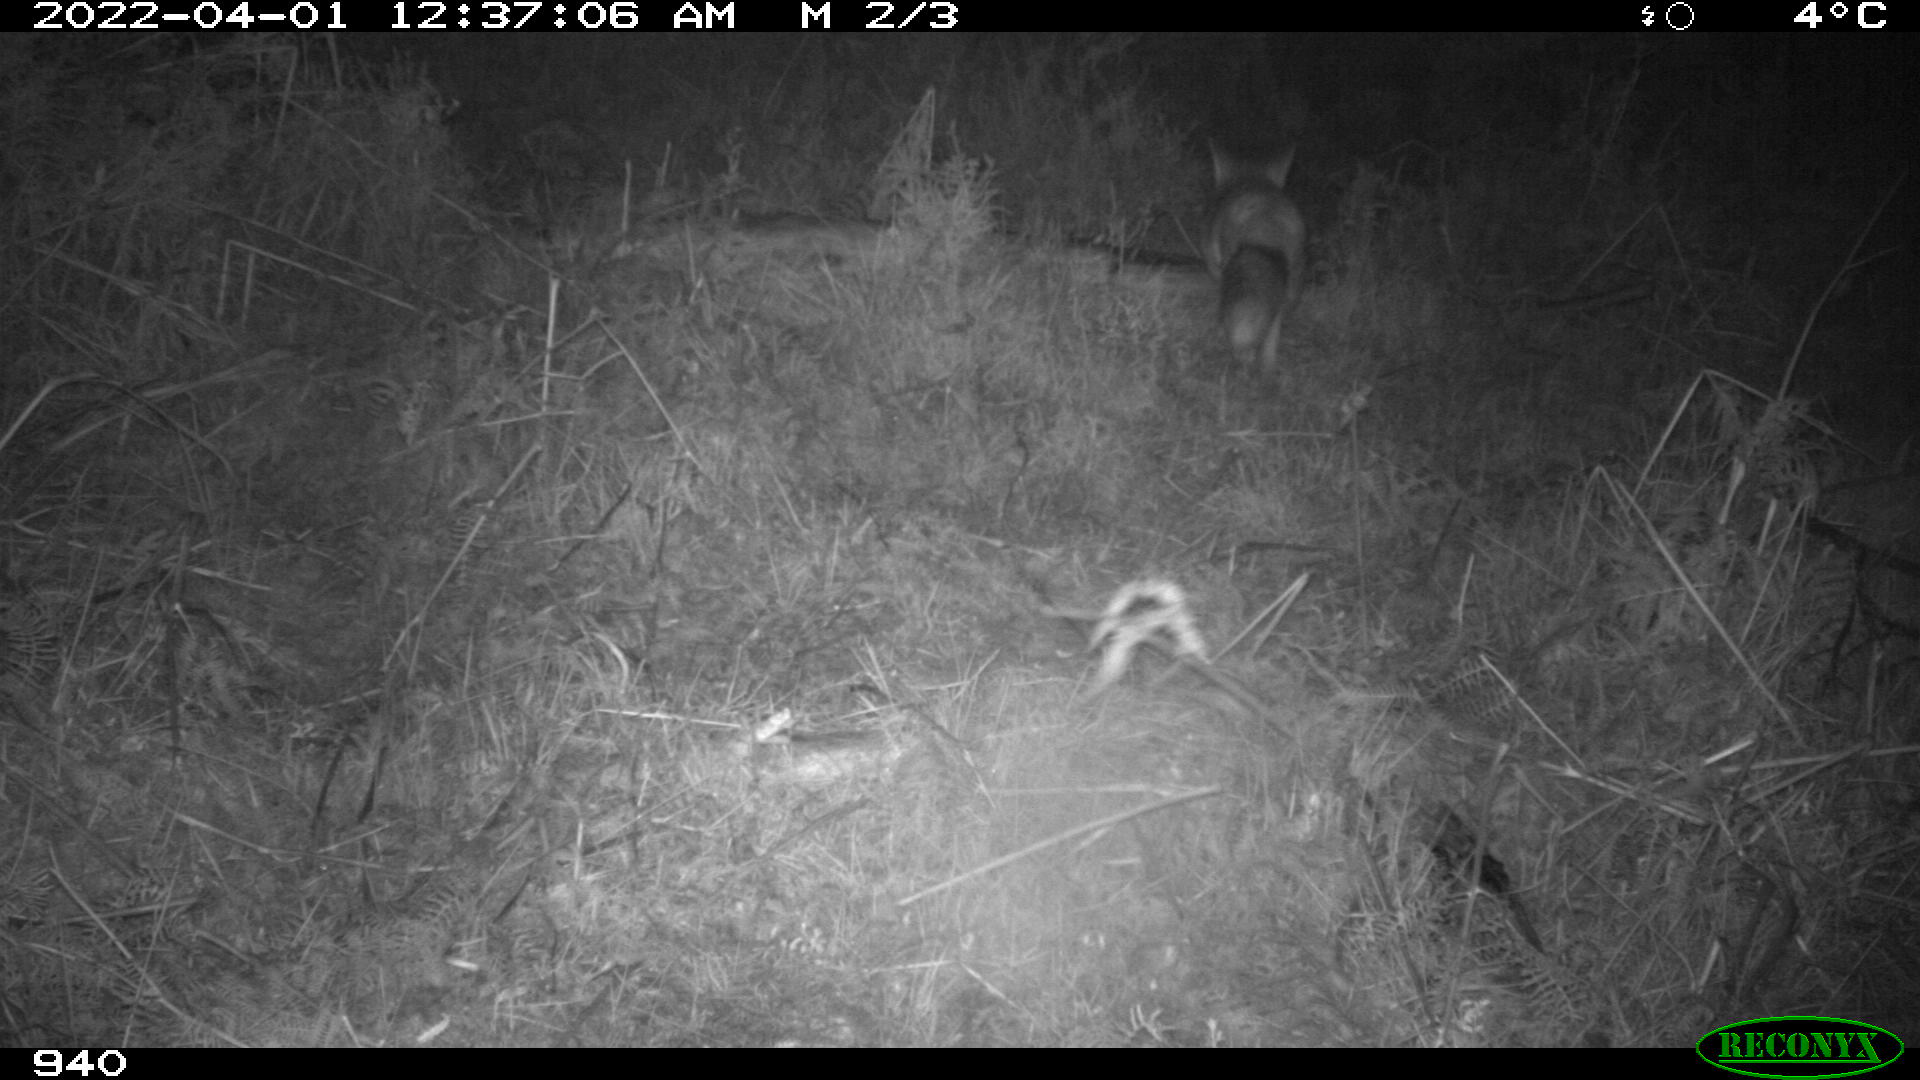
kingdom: Animalia
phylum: Chordata
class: Mammalia
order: Carnivora
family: Canidae
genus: Vulpes
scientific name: Vulpes vulpes
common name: Red fox
